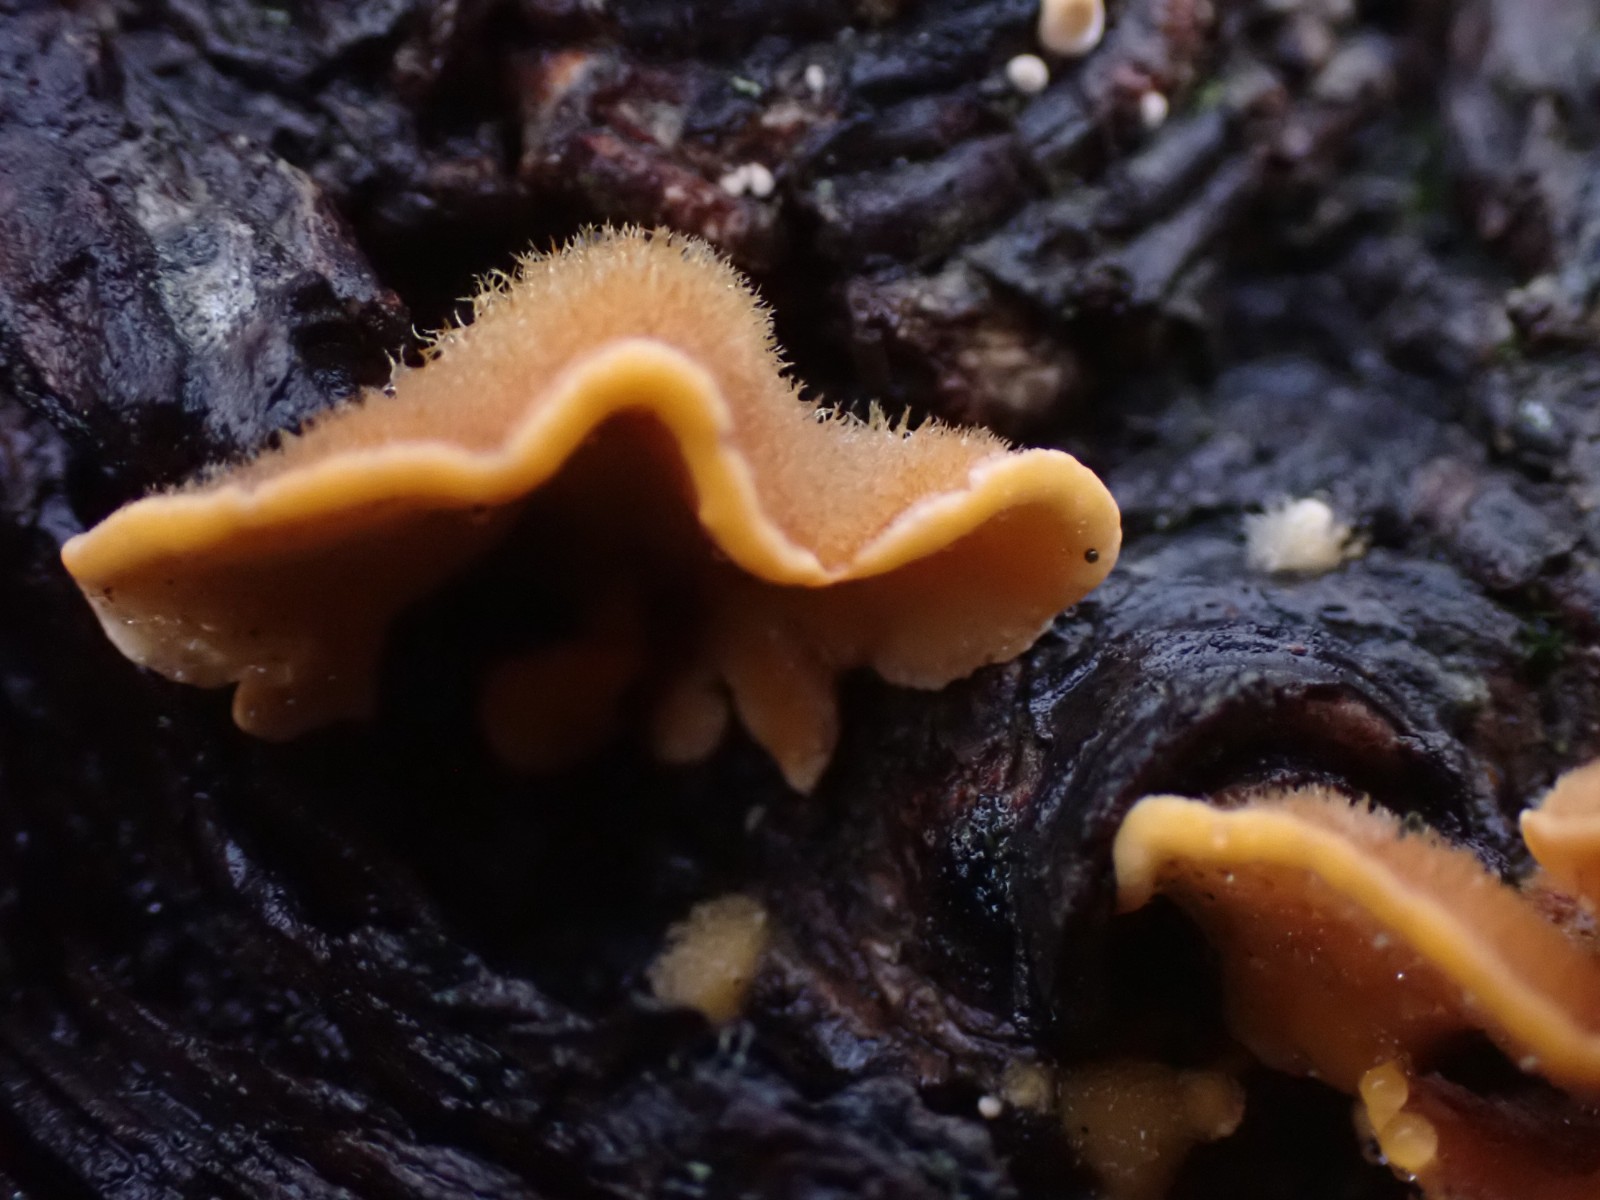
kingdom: Fungi
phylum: Basidiomycota
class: Agaricomycetes
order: Russulales
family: Stereaceae
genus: Stereum
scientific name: Stereum hirsutum
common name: håret lædersvamp
